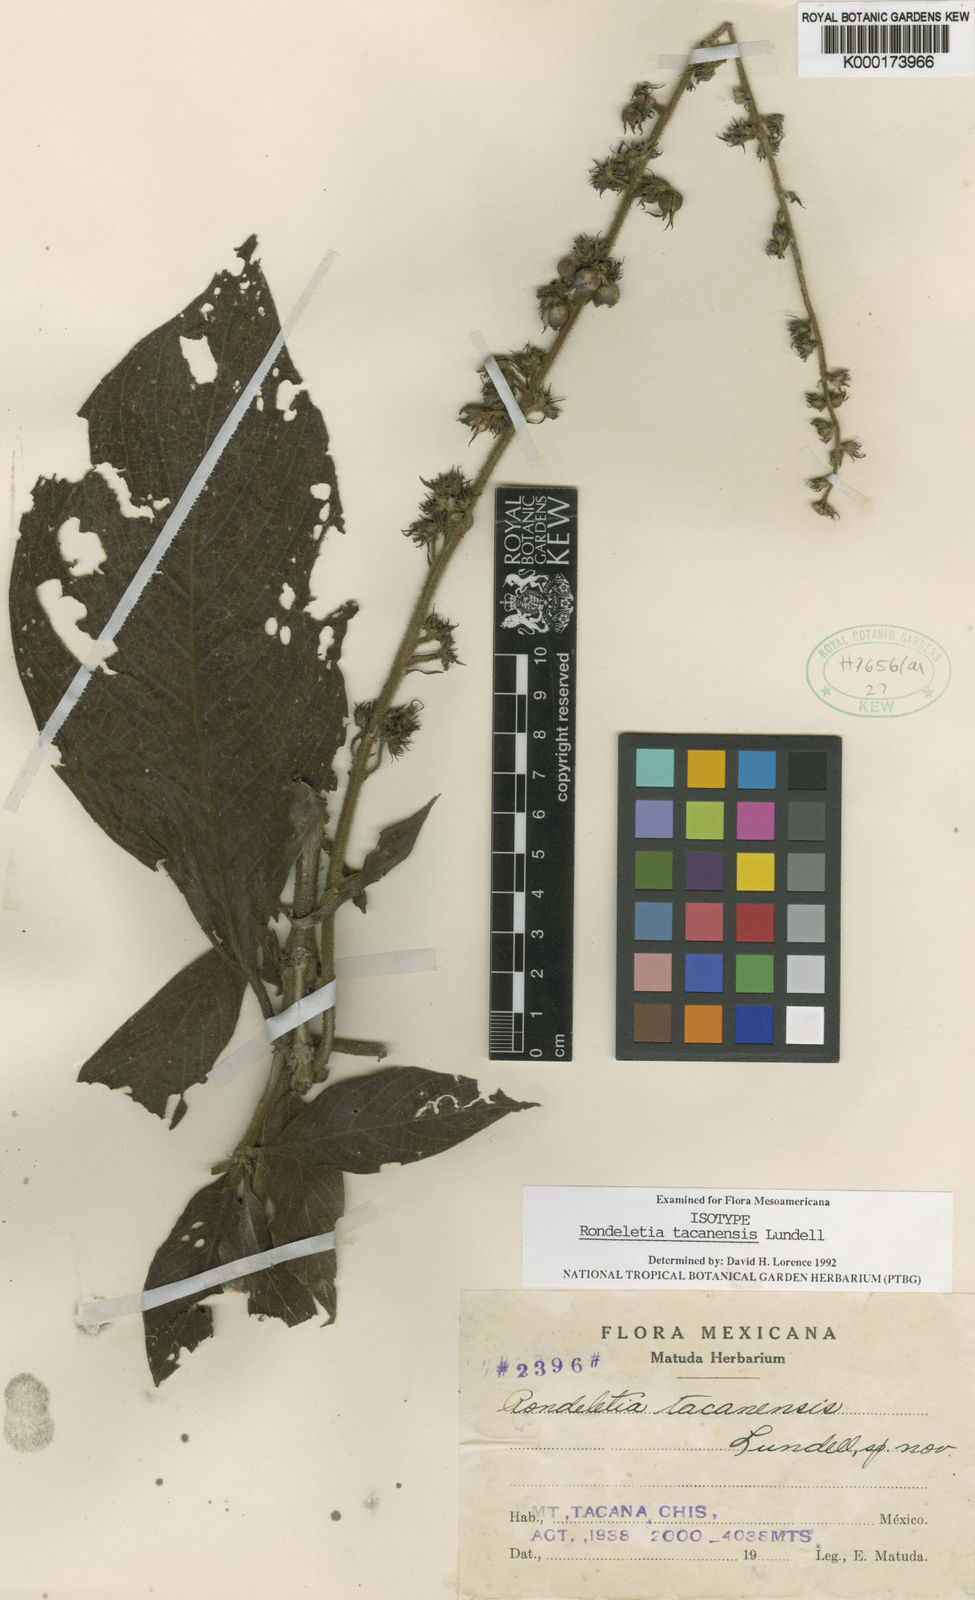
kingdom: Plantae
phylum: Tracheophyta
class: Magnoliopsida
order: Gentianales
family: Rubiaceae
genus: Arachnothryx
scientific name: Arachnothryx tacanensis
